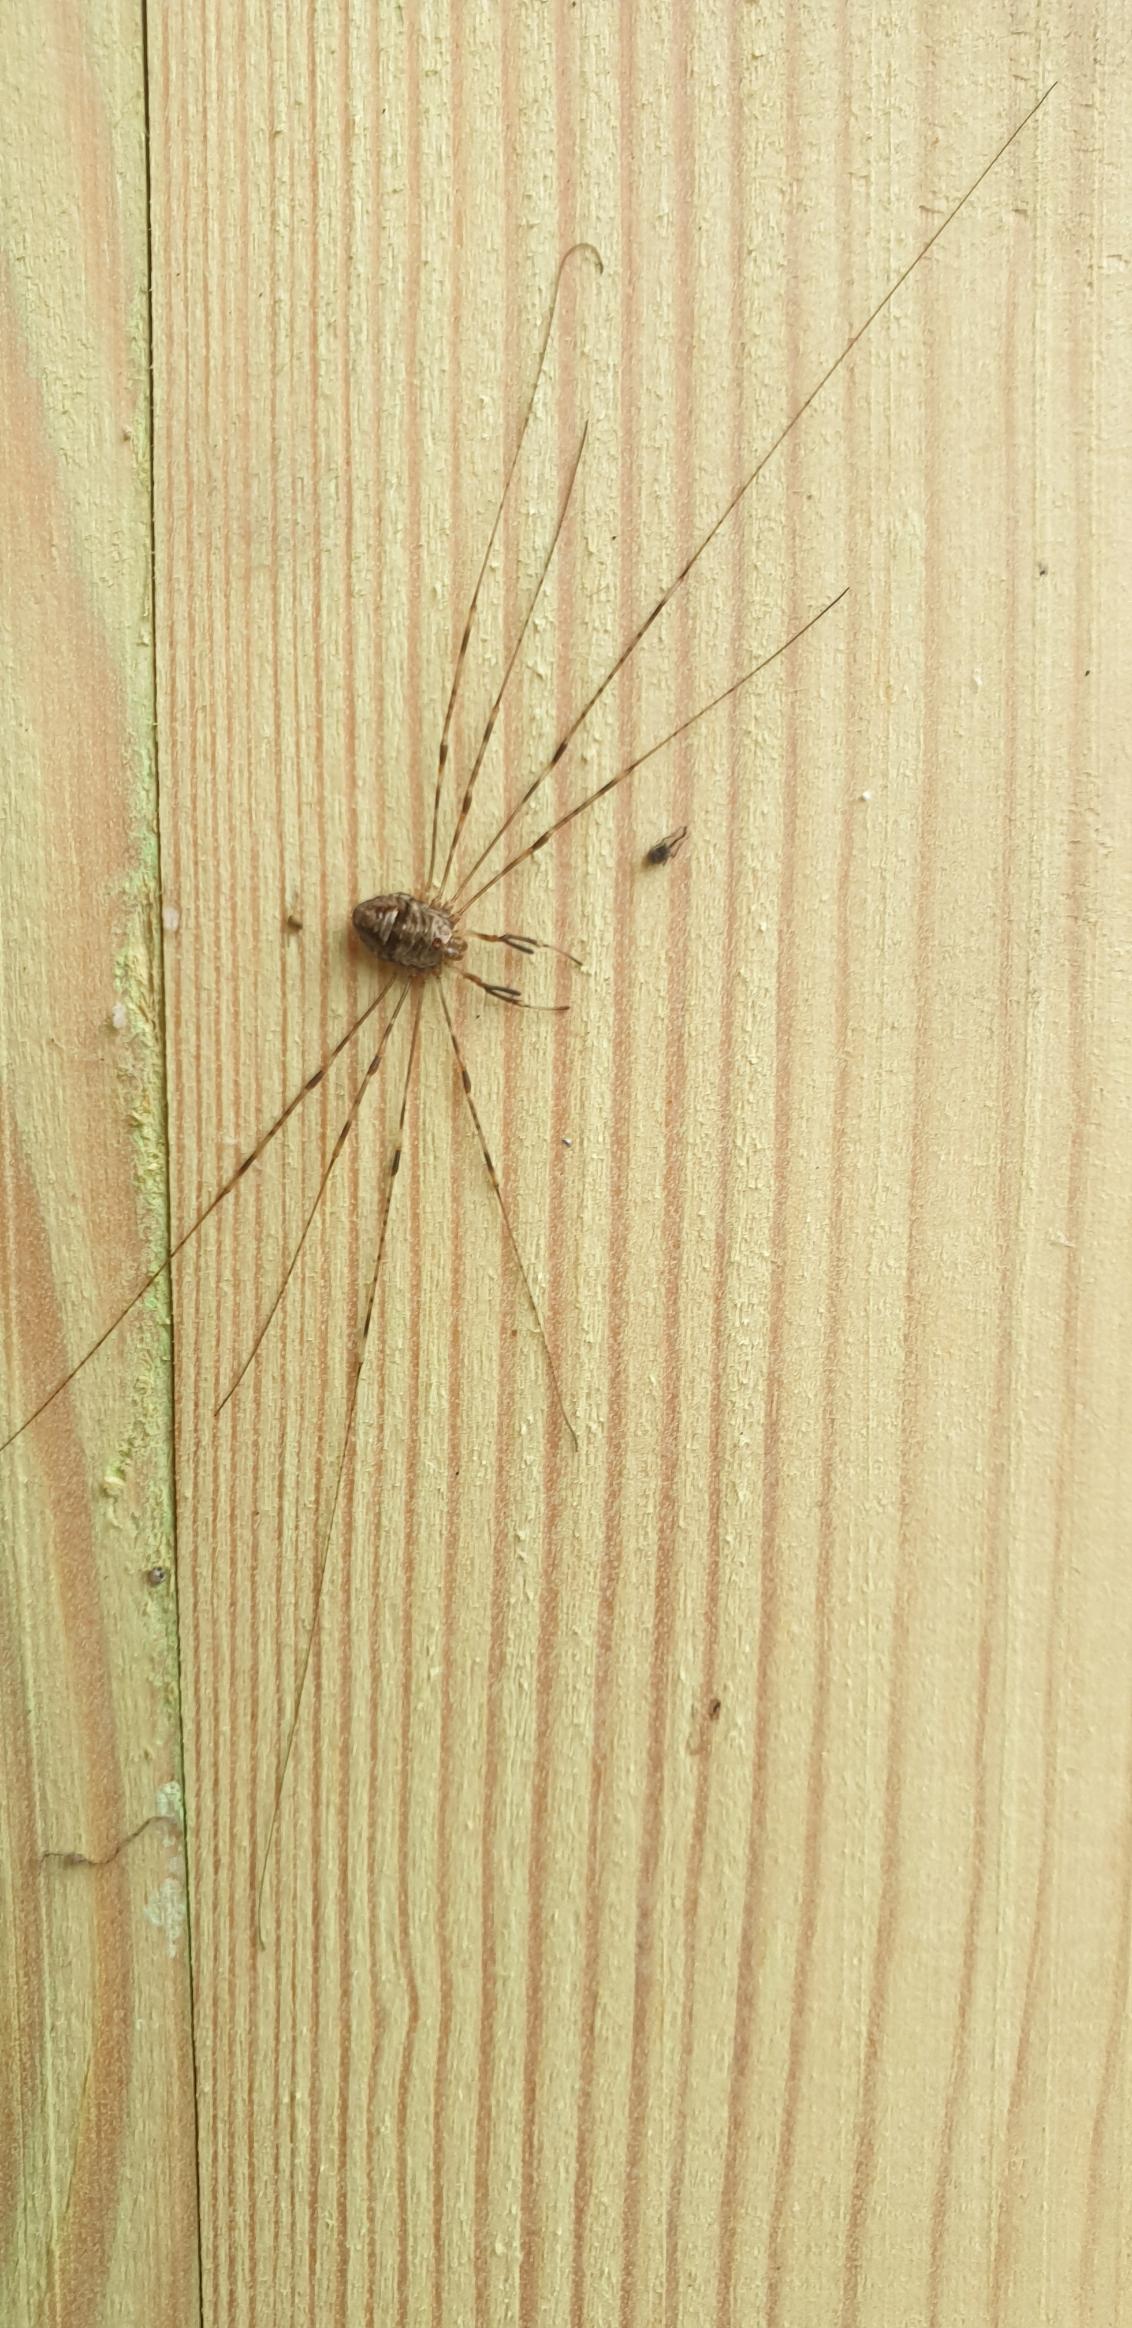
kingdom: Animalia
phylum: Arthropoda
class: Arachnida
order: Opiliones
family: Phalangiidae
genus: Dicranopalpus
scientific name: Dicranopalpus ramosus
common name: Gaffelmejer
